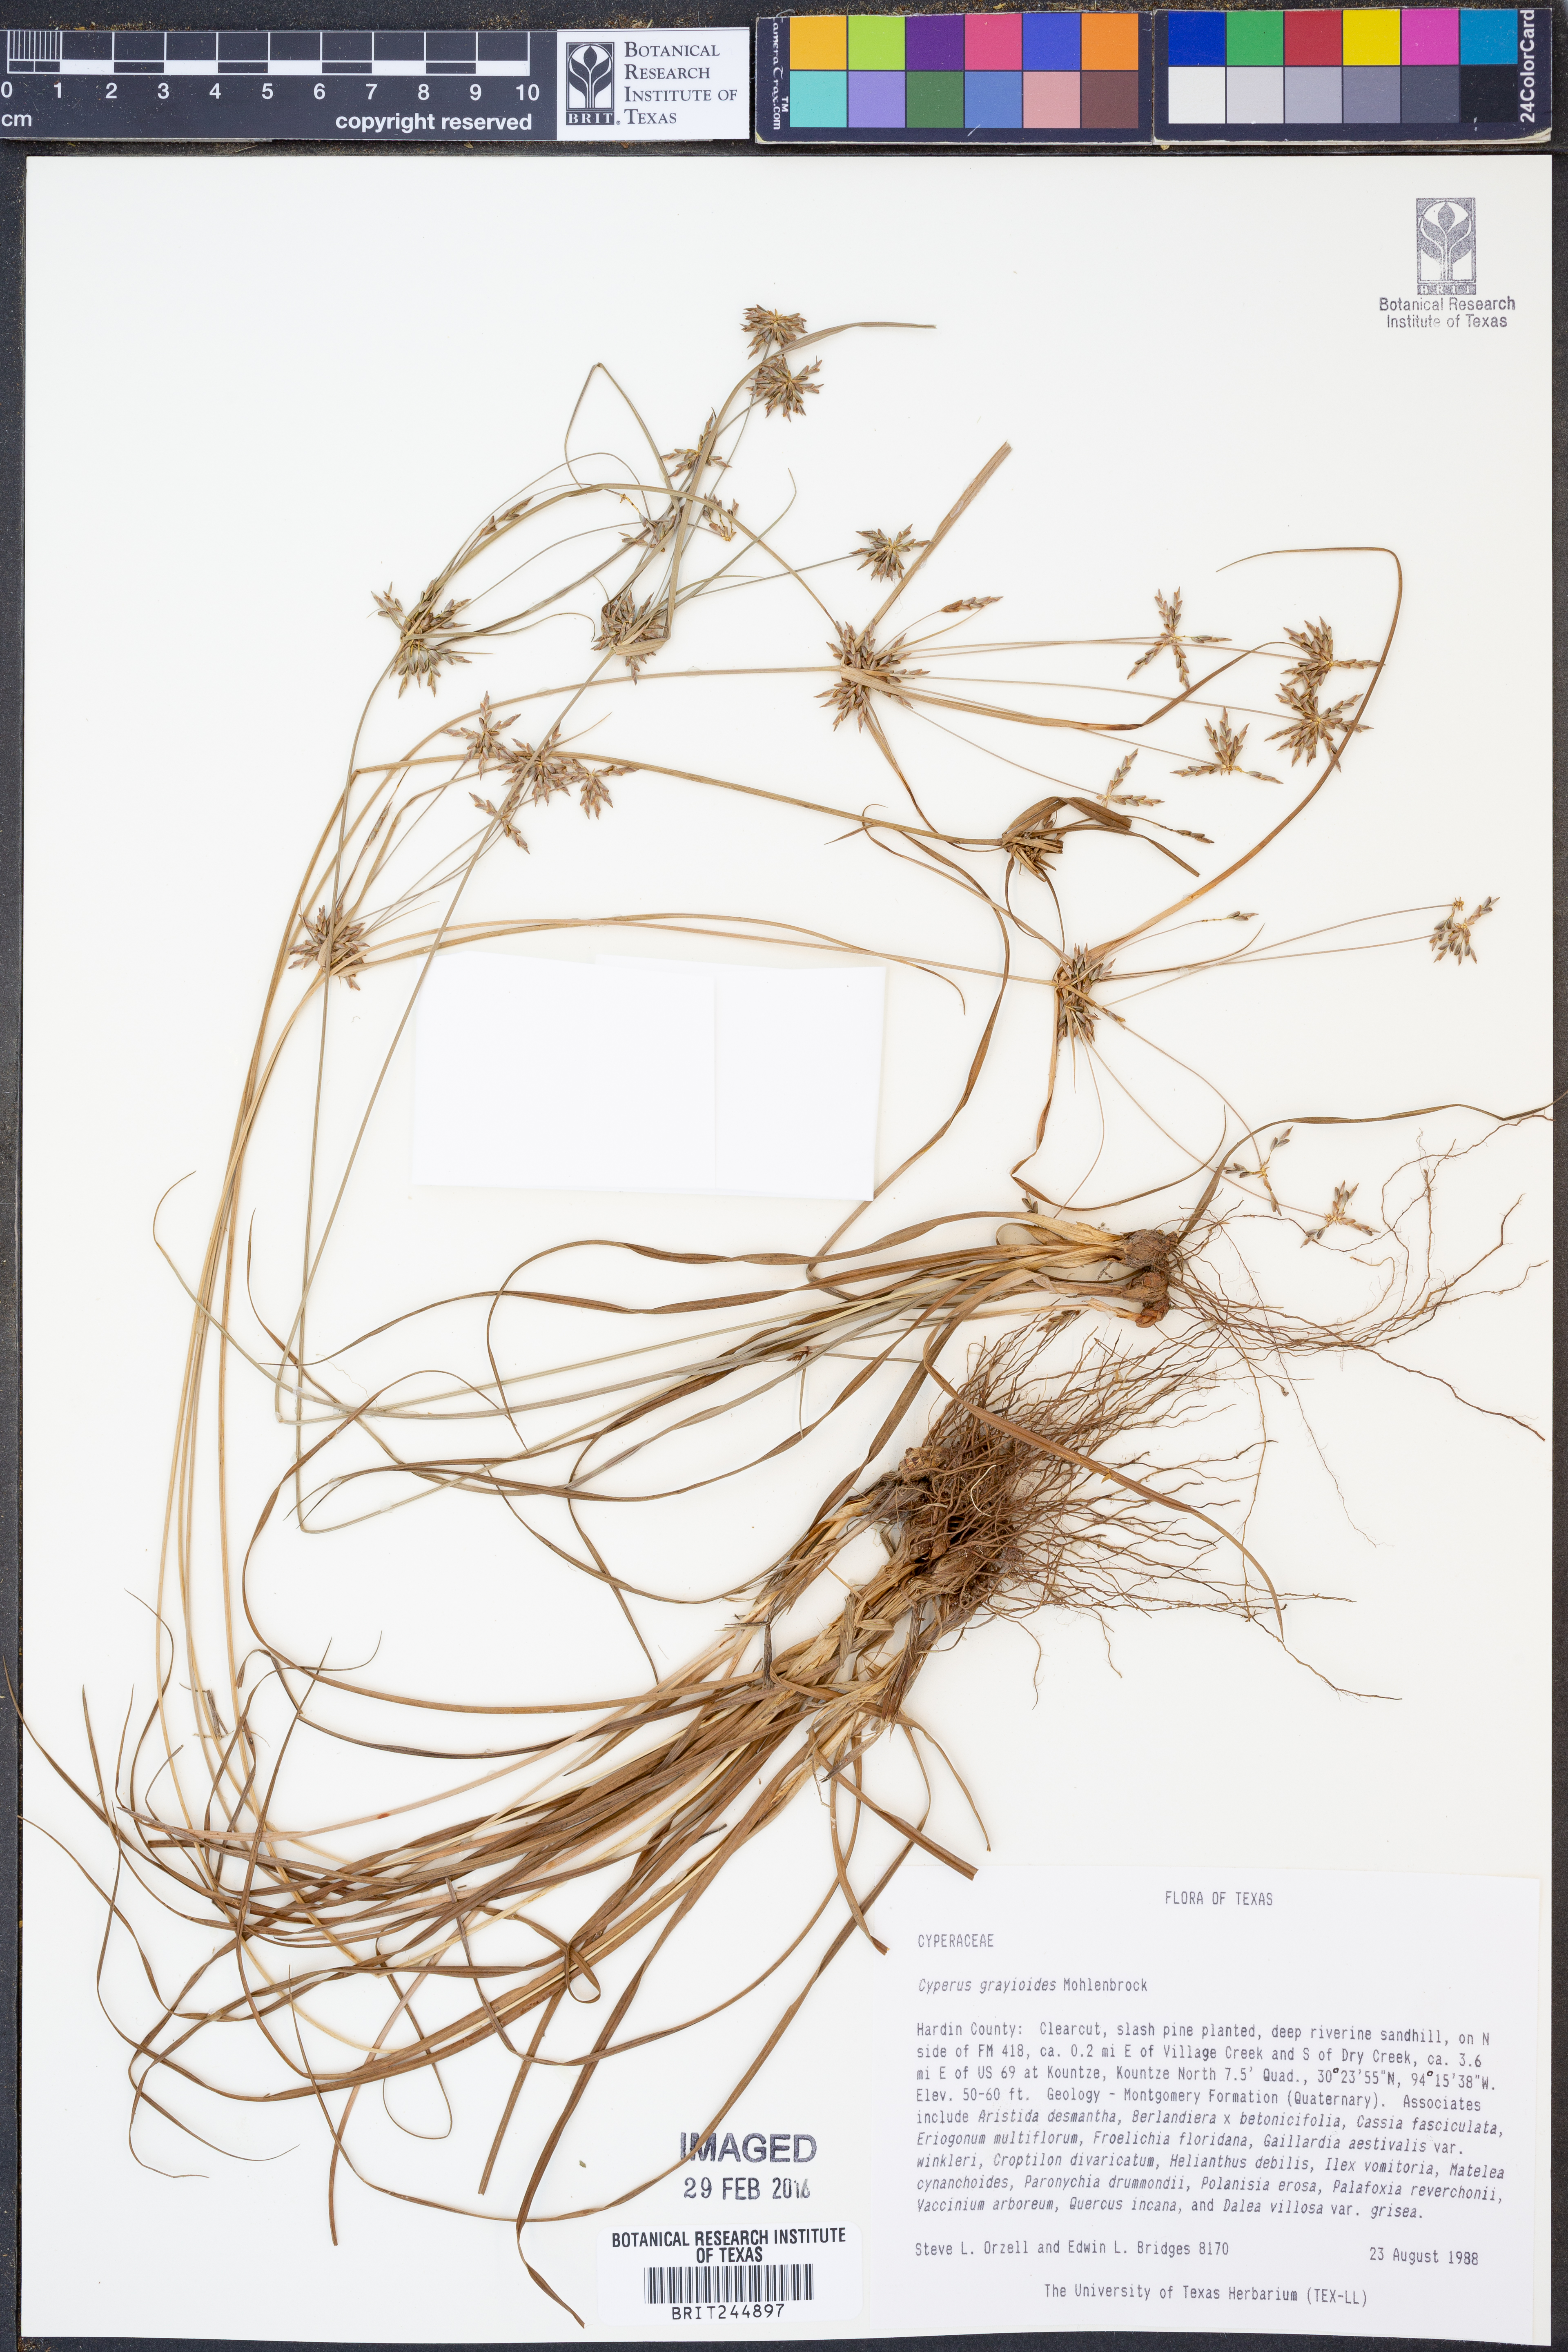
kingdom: Plantae
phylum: Tracheophyta
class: Liliopsida
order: Poales
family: Cyperaceae
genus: Cyperus
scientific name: Cyperus grayioides
